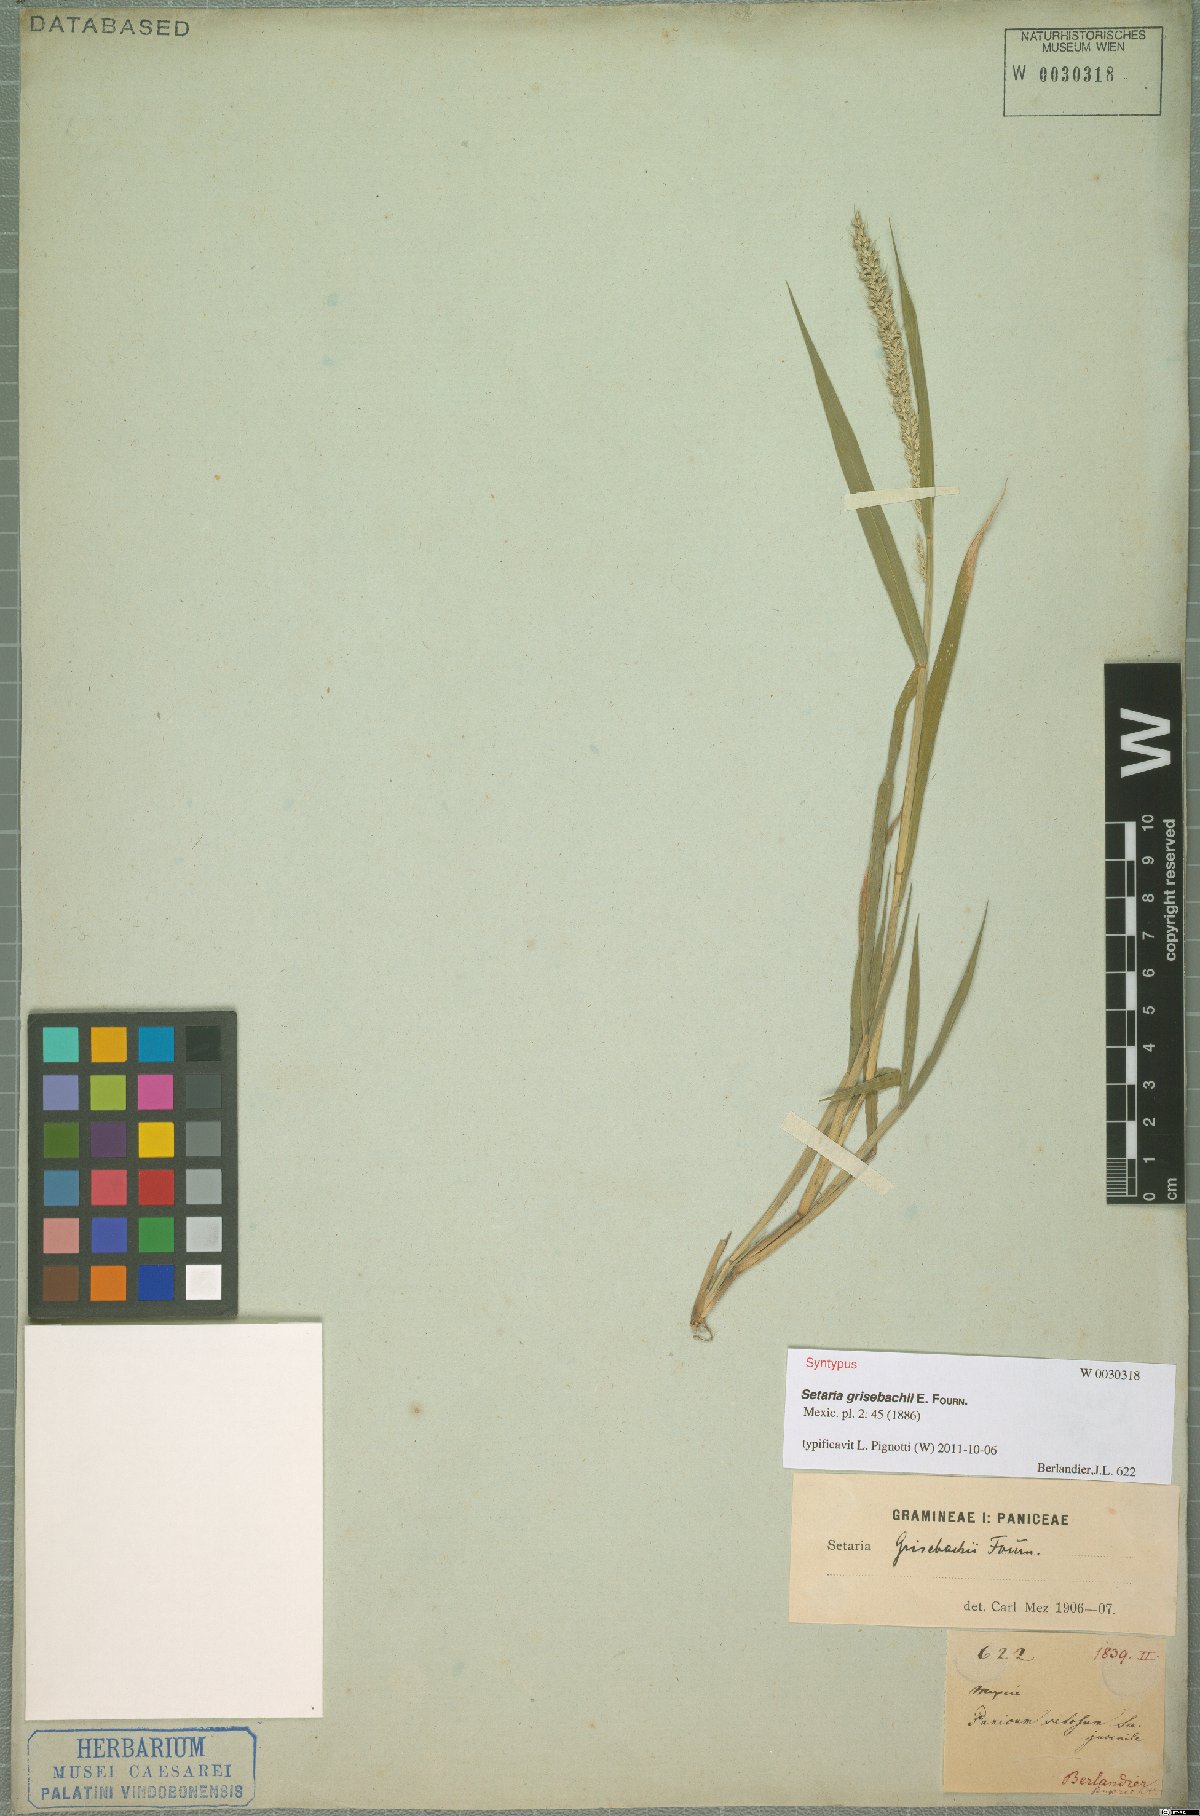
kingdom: Plantae
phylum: Tracheophyta
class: Liliopsida
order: Poales
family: Poaceae
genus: Setaria
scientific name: Setaria grisebachii
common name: Grisebach's bristle grass
